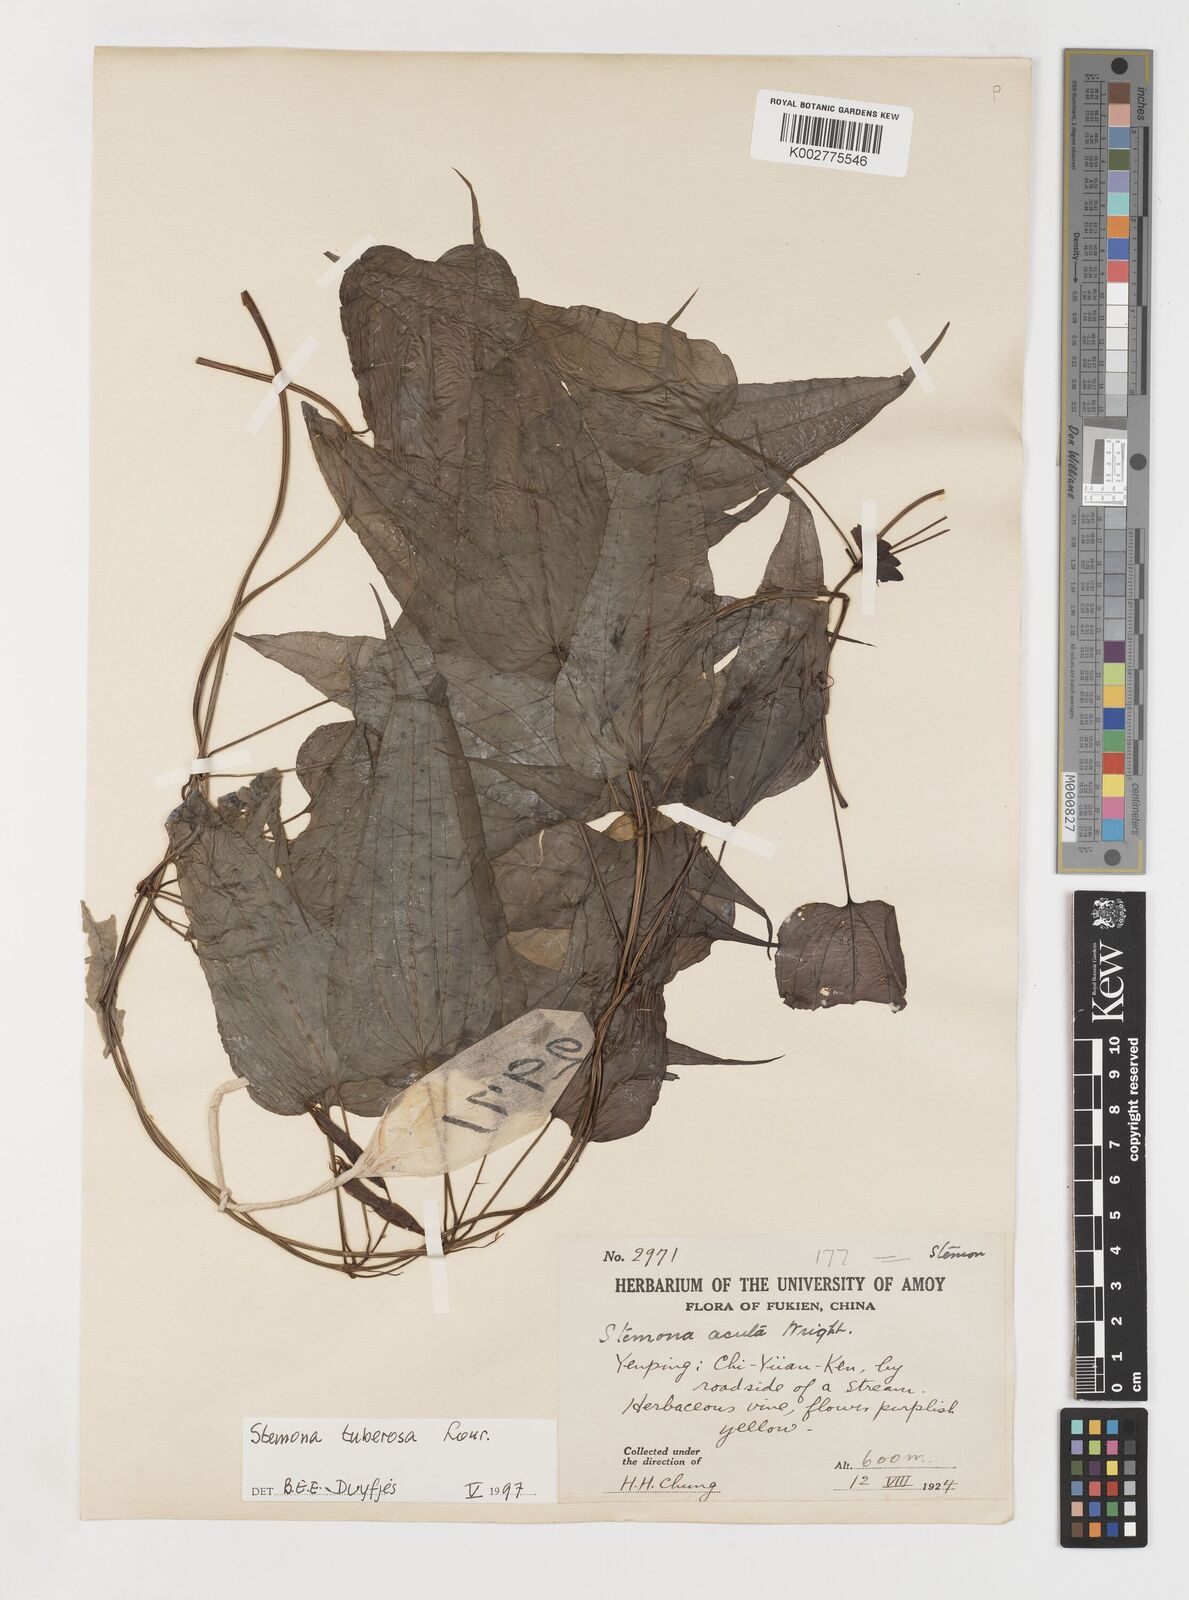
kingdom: Plantae
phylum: Tracheophyta
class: Liliopsida
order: Pandanales
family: Stemonaceae
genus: Stemona
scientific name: Stemona tuberosa
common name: Stemona
